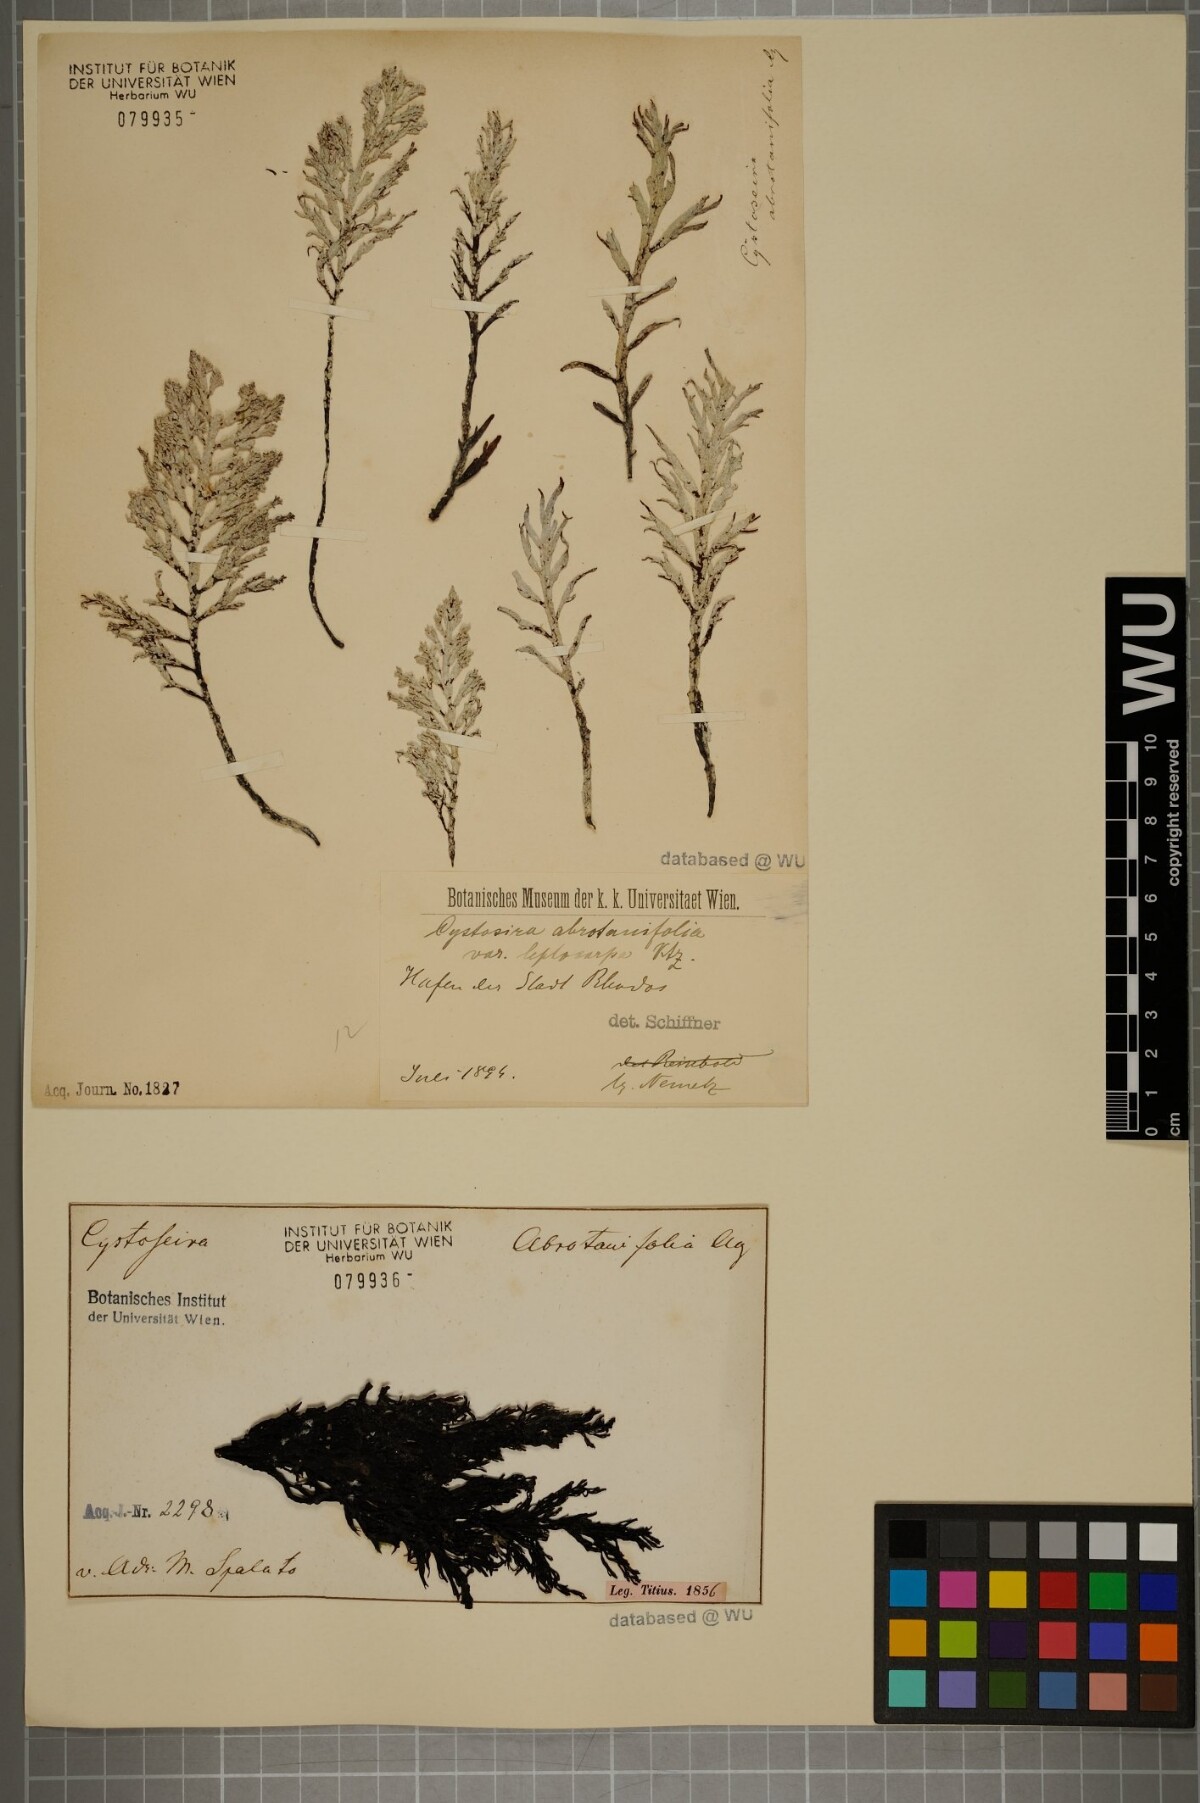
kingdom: Chromista
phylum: Ochrophyta
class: Phaeophyceae
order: Fucales
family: Sargassaceae
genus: Cystoseira
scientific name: Cystoseira foeniculacea
